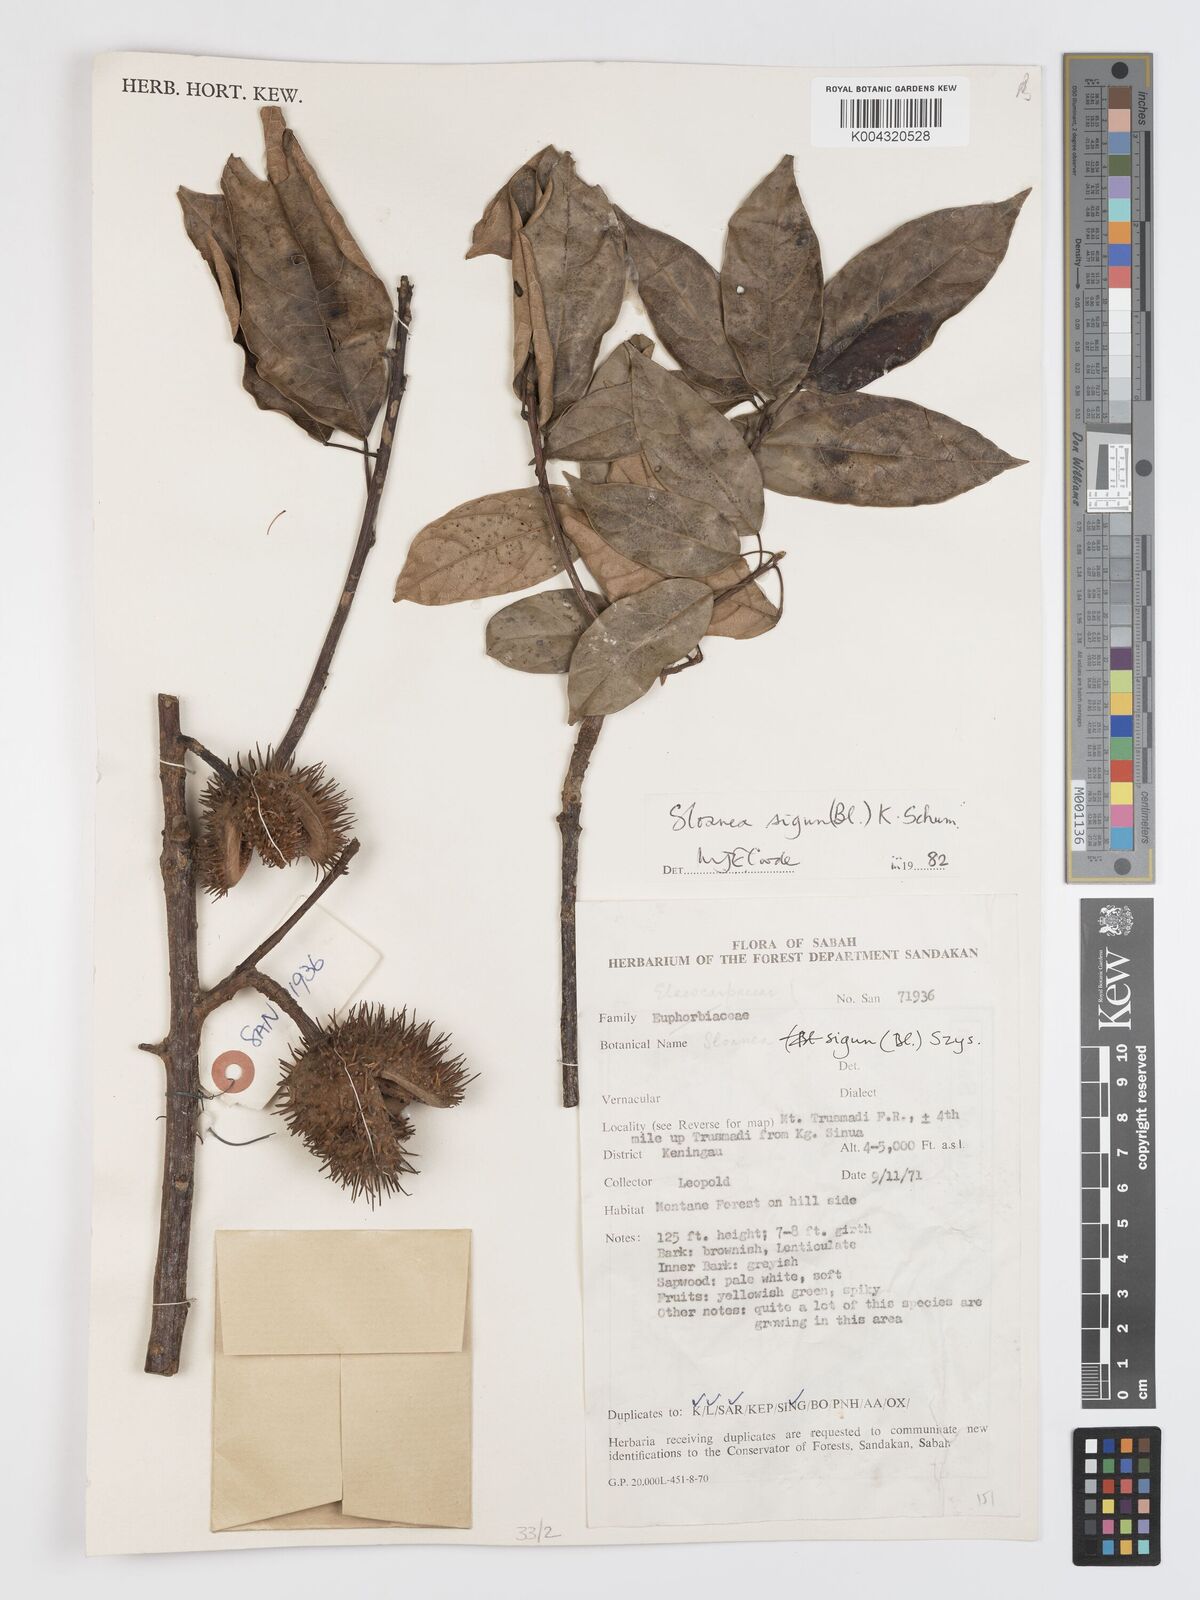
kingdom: Plantae
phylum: Tracheophyta
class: Magnoliopsida
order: Oxalidales
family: Elaeocarpaceae
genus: Sloanea
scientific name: Sloanea sigun
